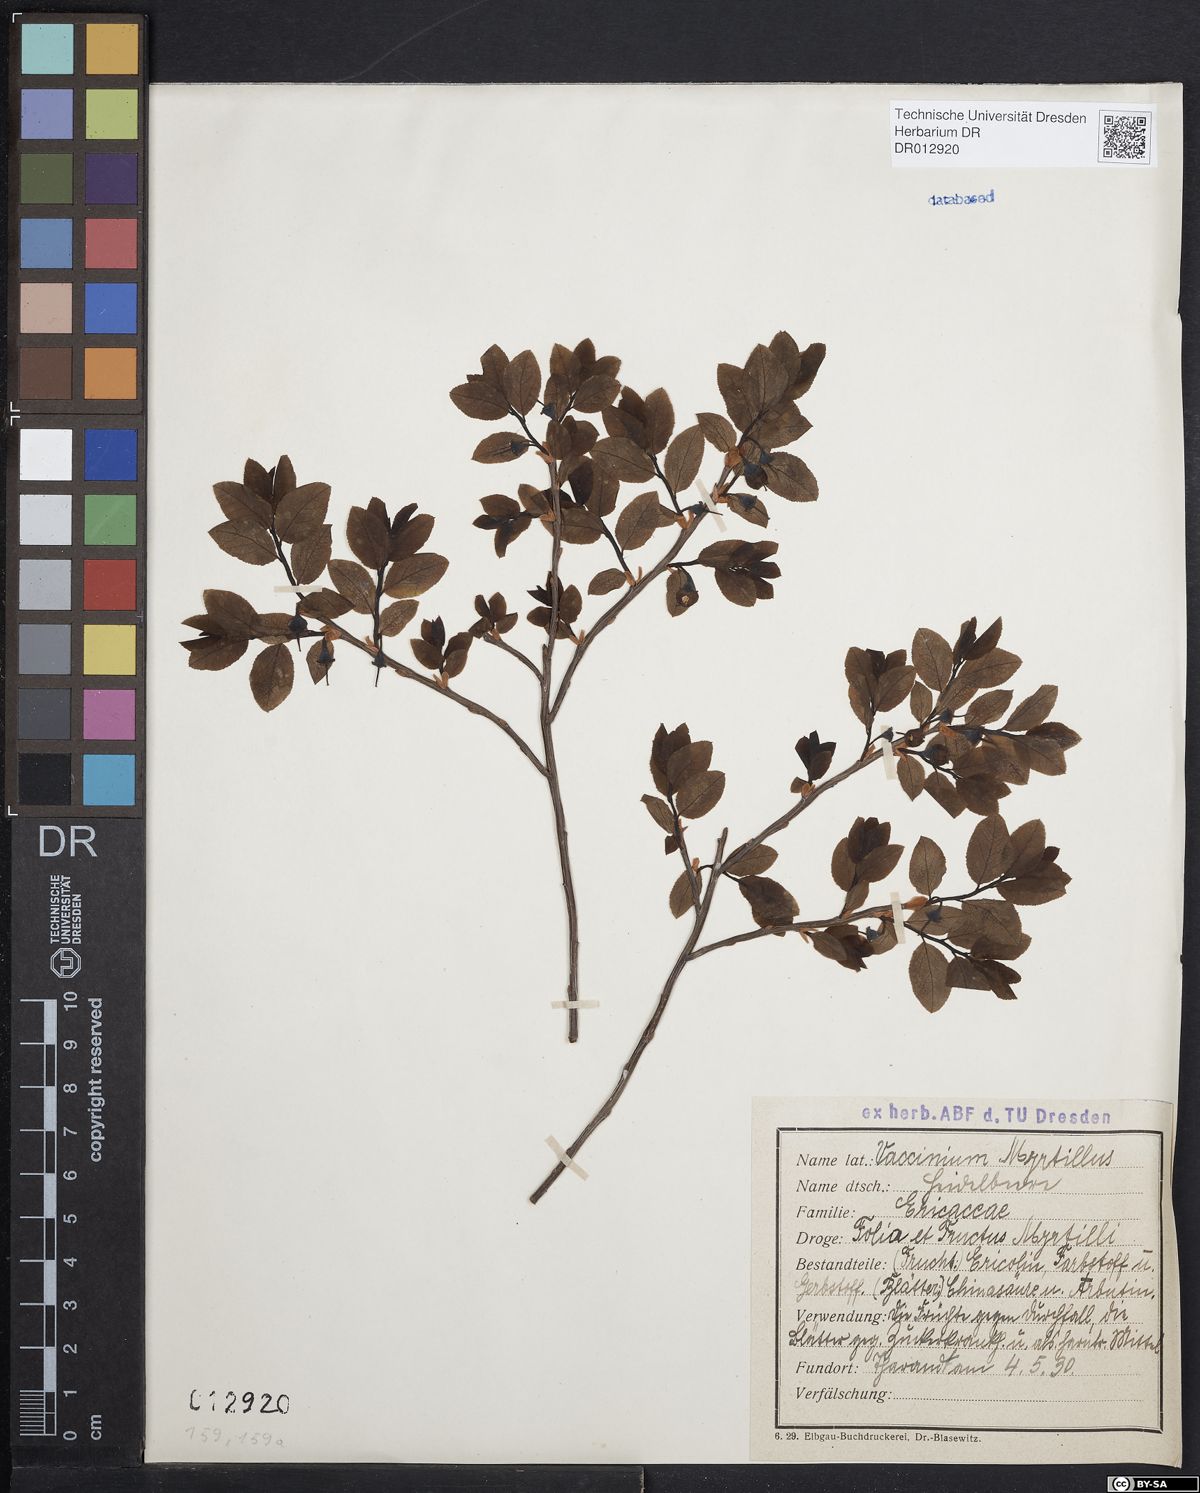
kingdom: Plantae
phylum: Tracheophyta
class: Magnoliopsida
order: Ericales
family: Ericaceae
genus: Vaccinium
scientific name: Vaccinium myrtillus
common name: Bilberry
